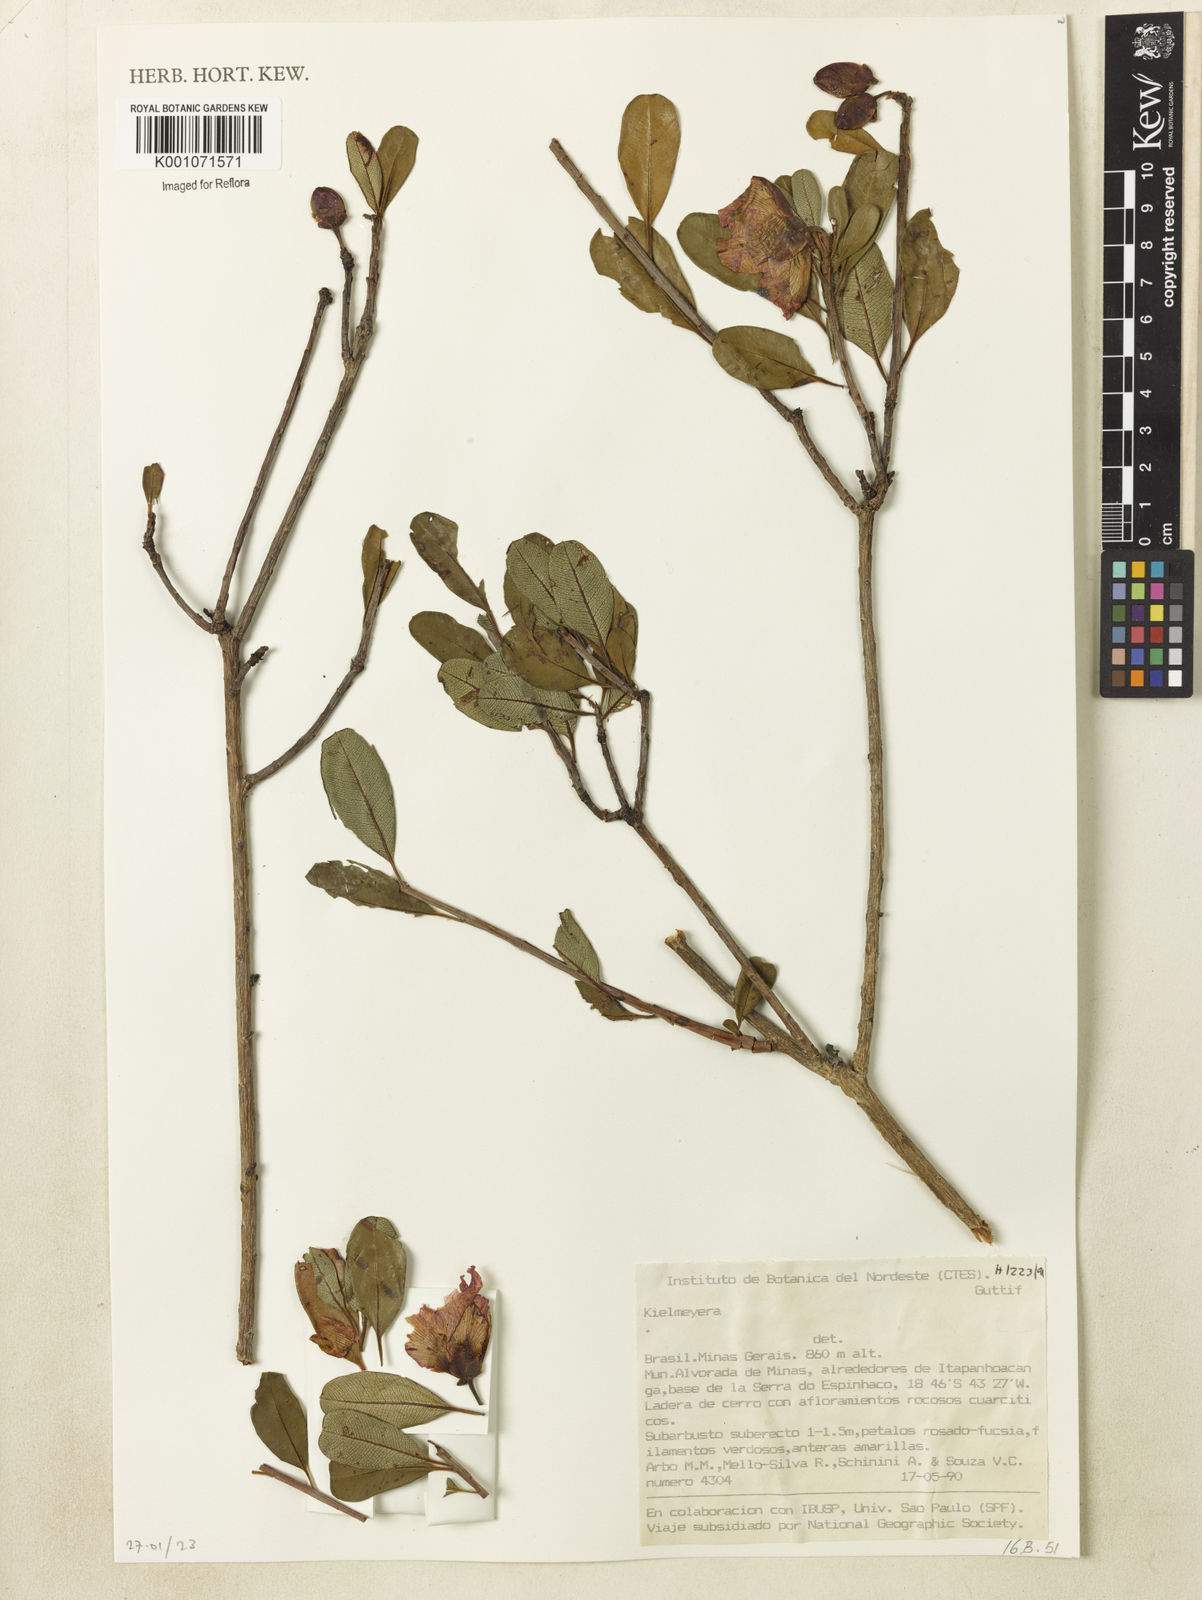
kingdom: Plantae
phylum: Tracheophyta
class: Magnoliopsida
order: Malpighiales
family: Calophyllaceae
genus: Kielmeyera
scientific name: Kielmeyera regalis
